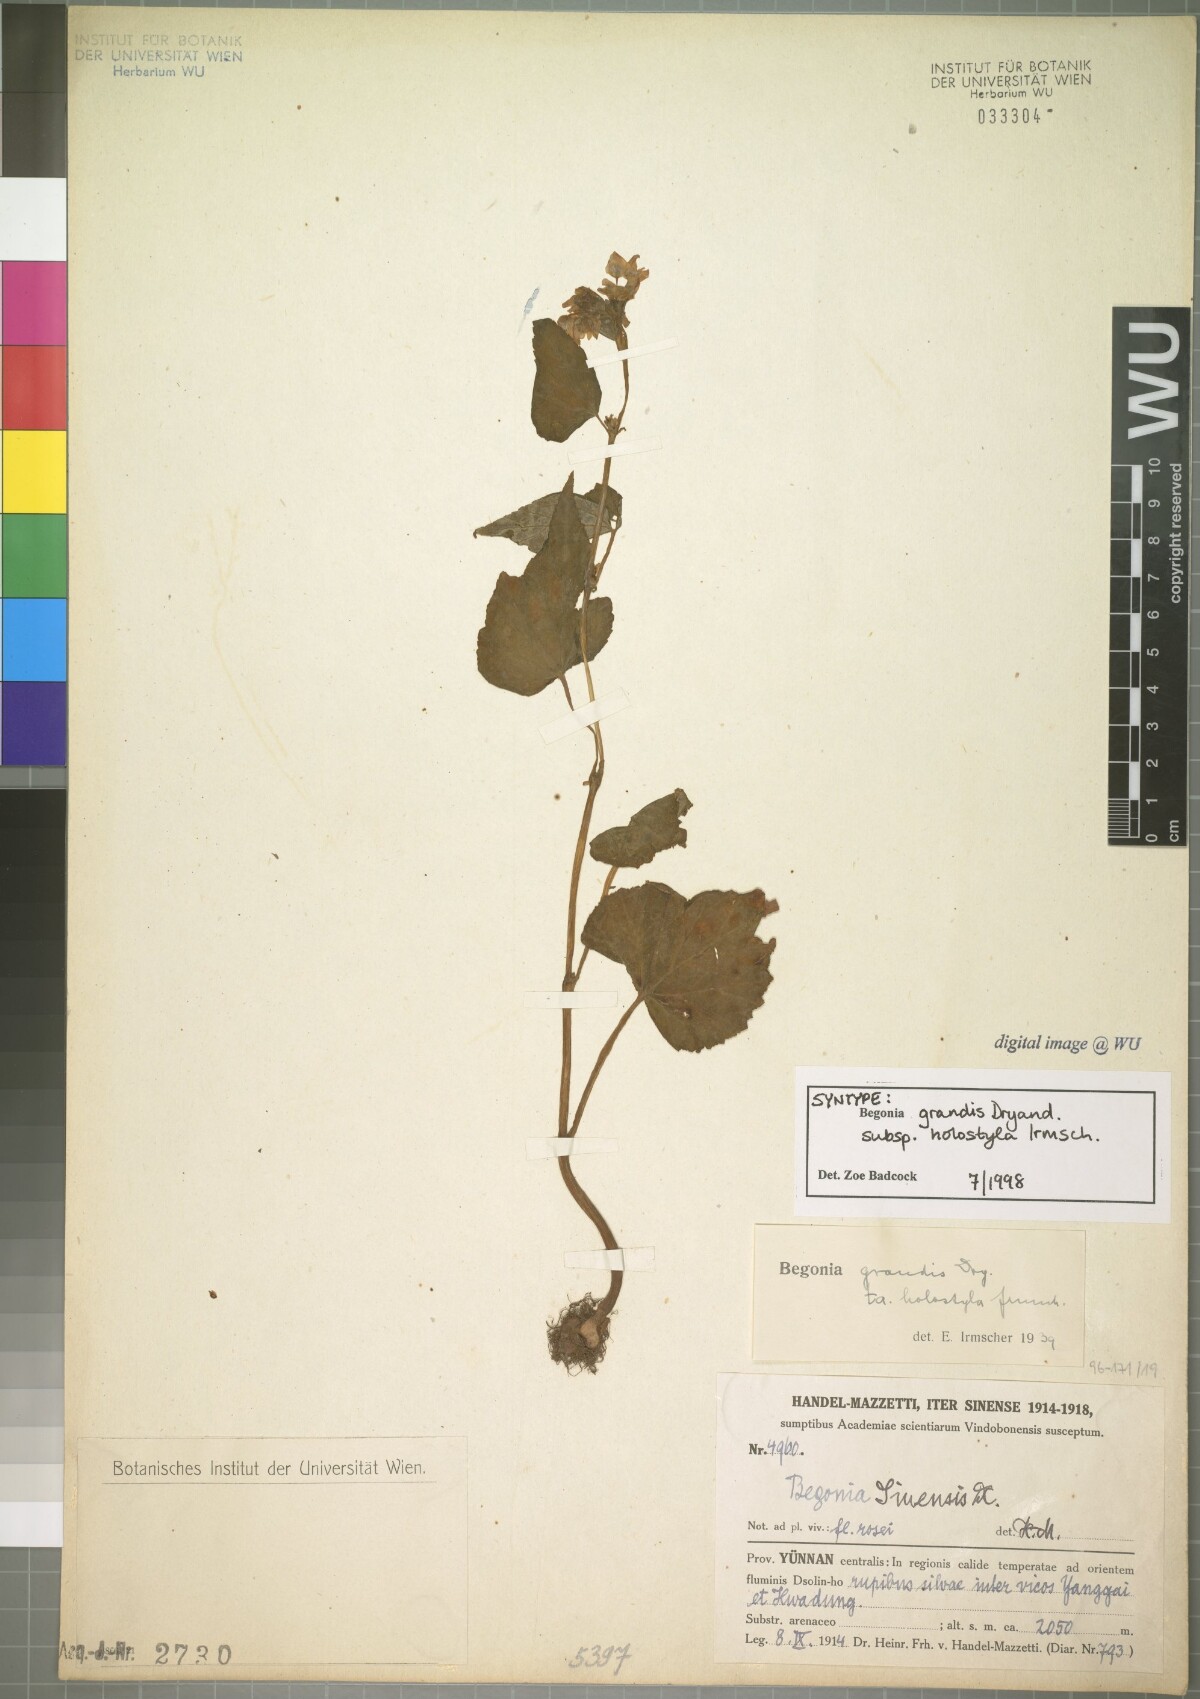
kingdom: Plantae
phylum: Tracheophyta
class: Magnoliopsida
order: Cucurbitales
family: Begoniaceae
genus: Begonia
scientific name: Begonia grandis
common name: Hardy begonia
